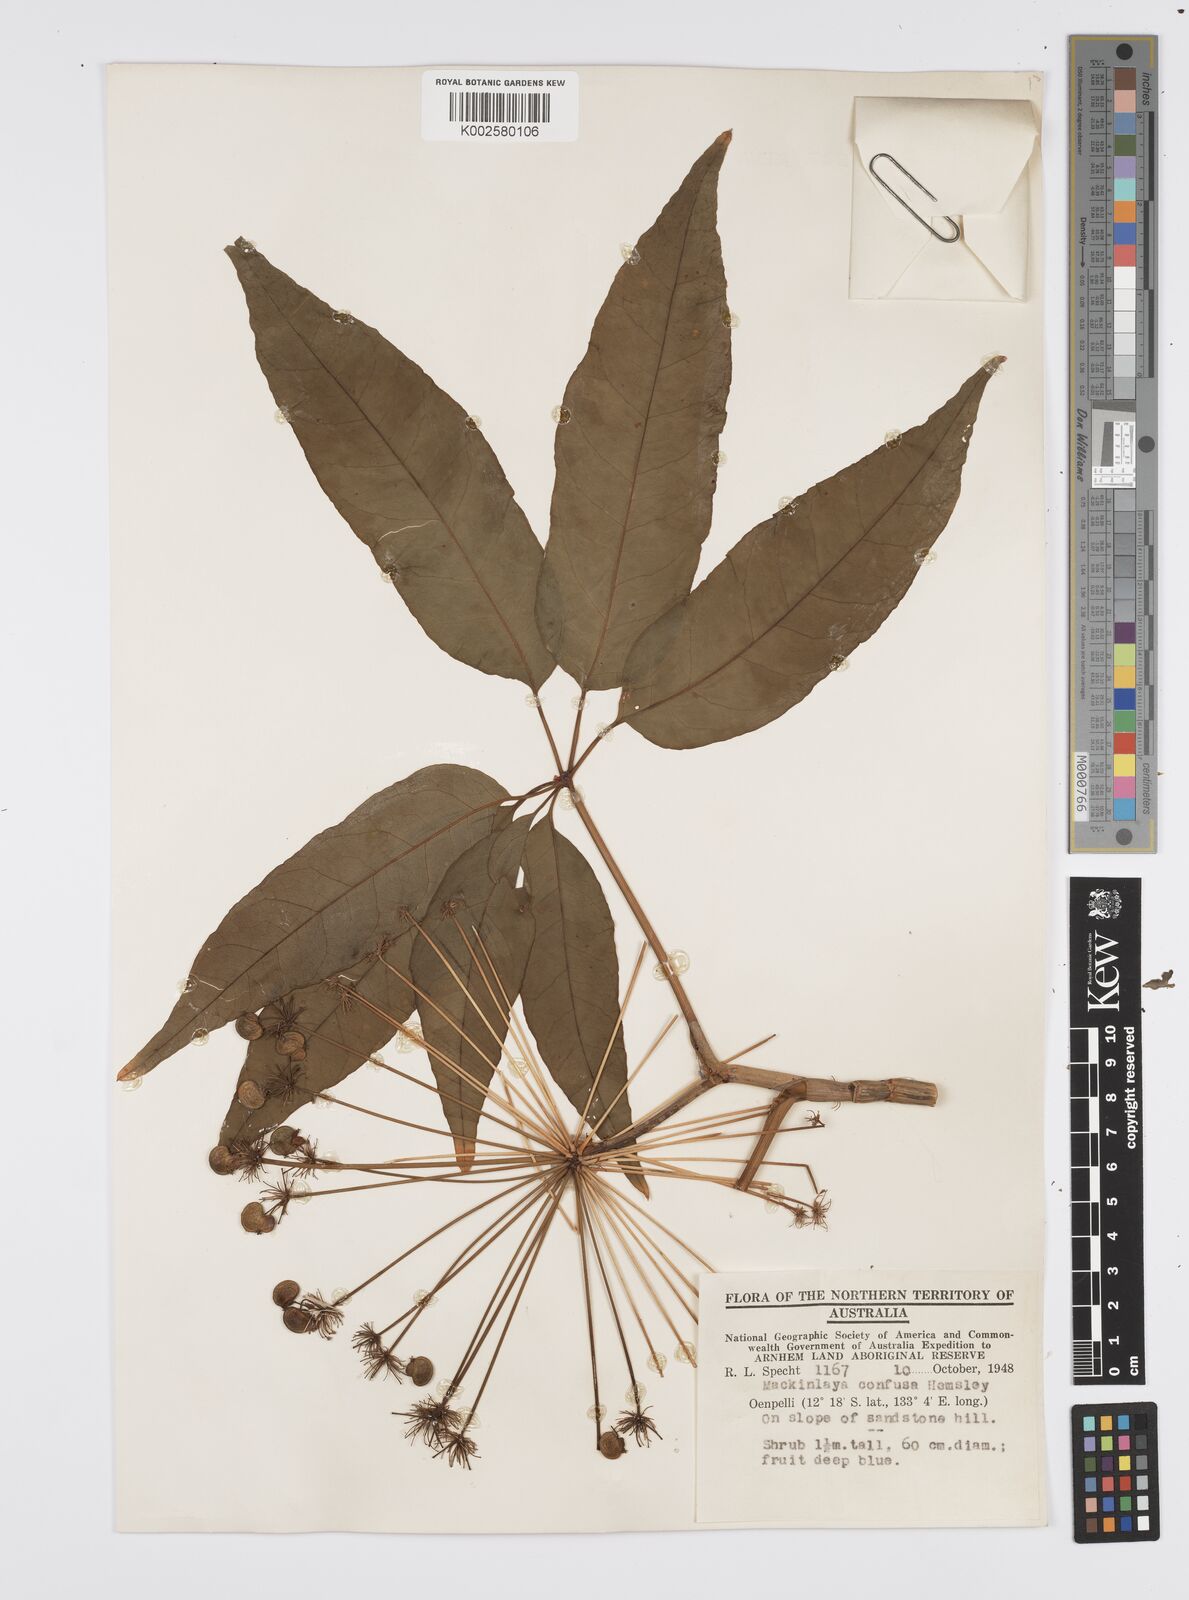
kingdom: Plantae
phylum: Tracheophyta
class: Magnoliopsida
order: Apiales
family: Apiaceae
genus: Mackinlaya
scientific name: Mackinlaya confusa
